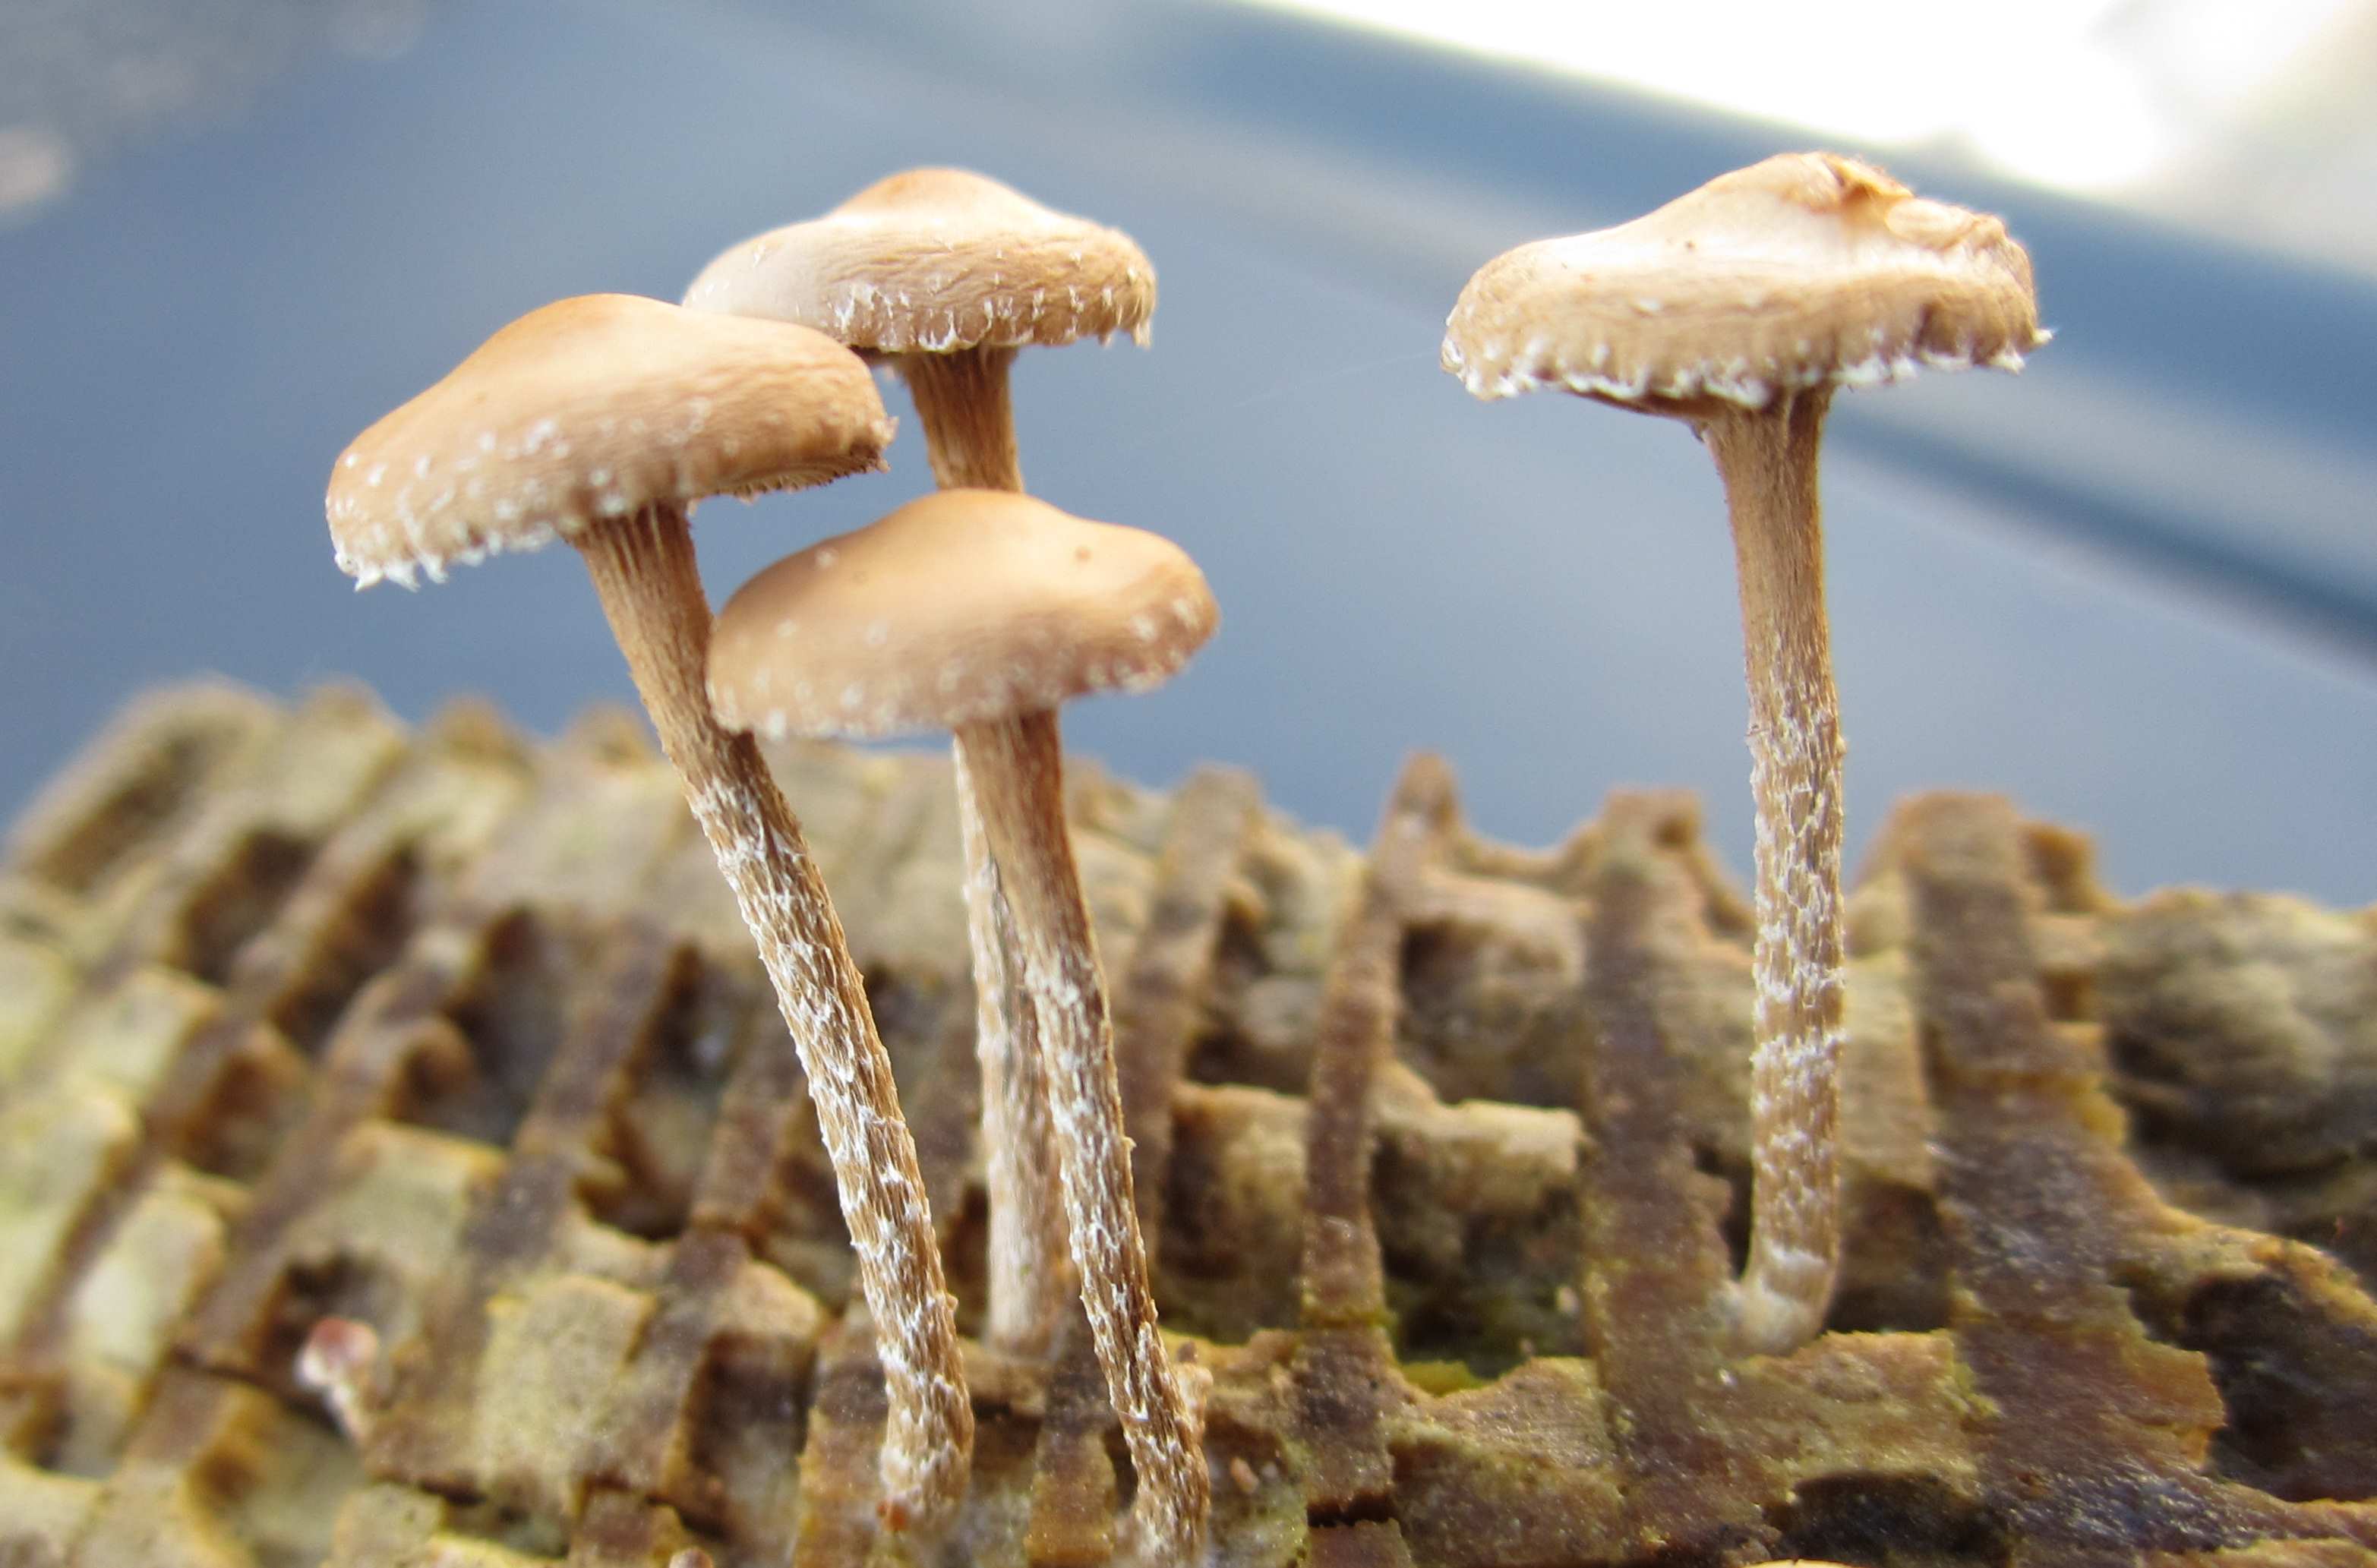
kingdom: Fungi
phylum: Basidiomycota
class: Agaricomycetes
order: Agaricales
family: Strophariaceae
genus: Deconica
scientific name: Deconica crobula
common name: træflis-stråhat
